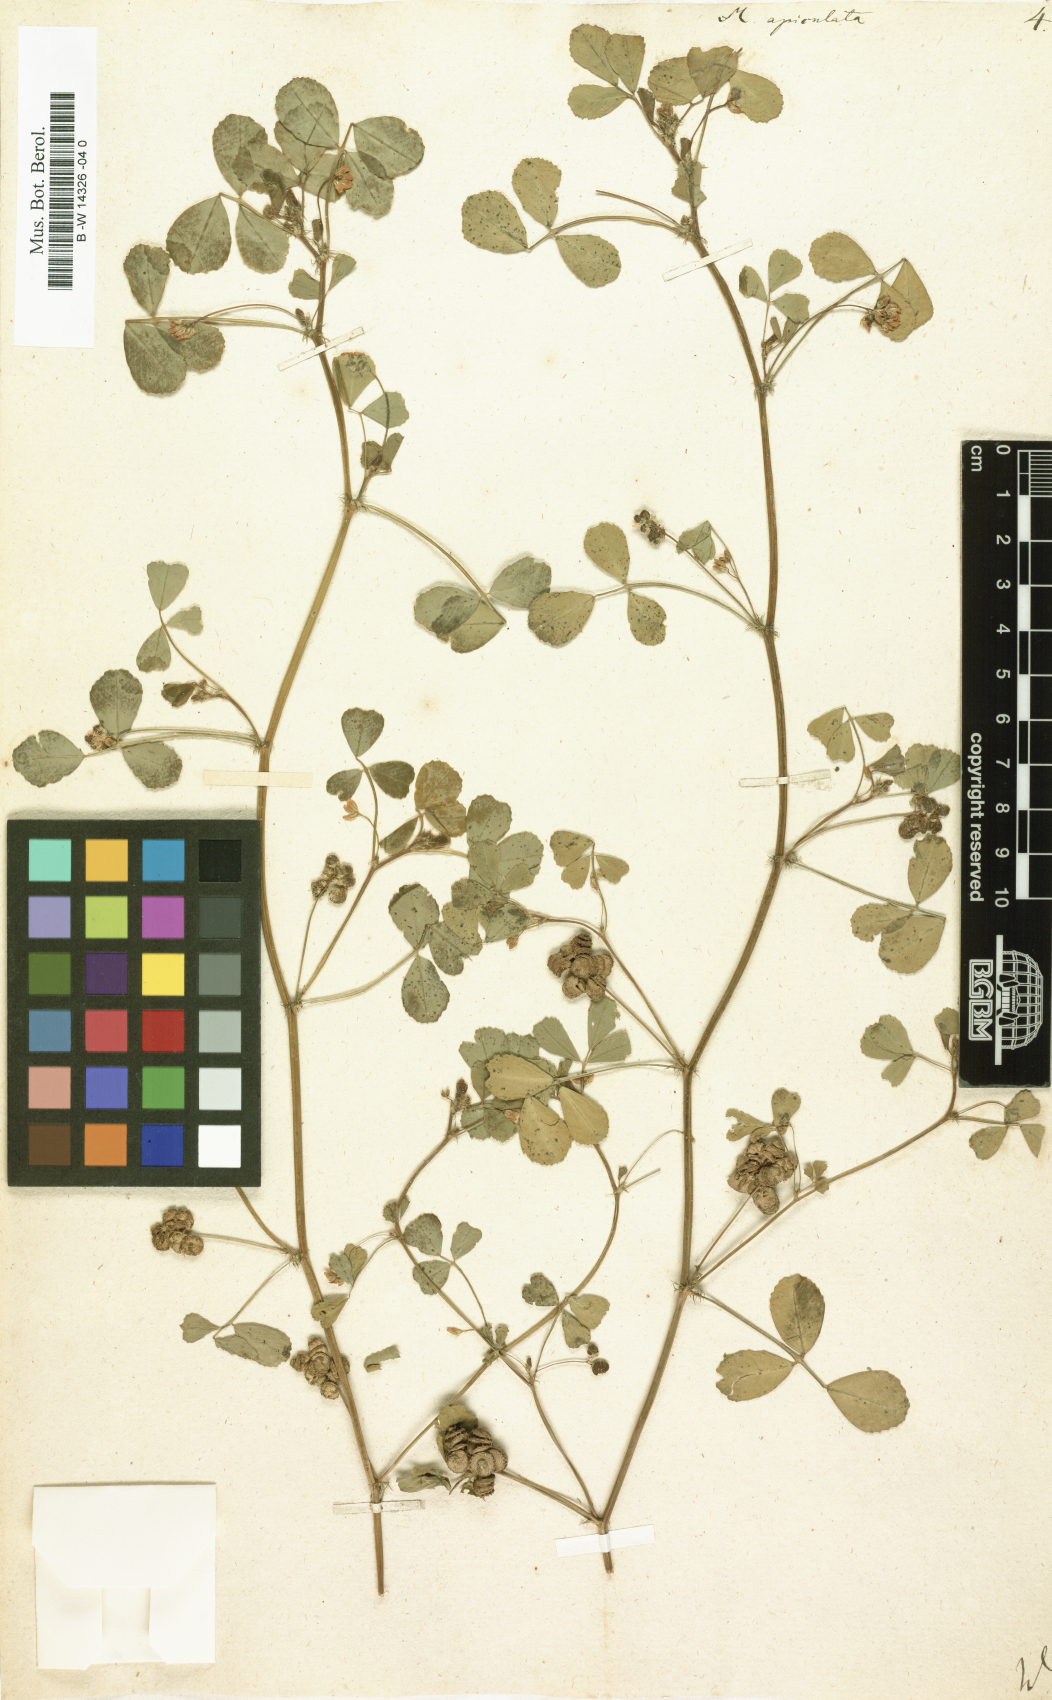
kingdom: Plantae
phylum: Tracheophyta
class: Magnoliopsida
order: Fabales
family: Fabaceae
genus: Medicago
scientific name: Medicago polymorpha
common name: Burclover
